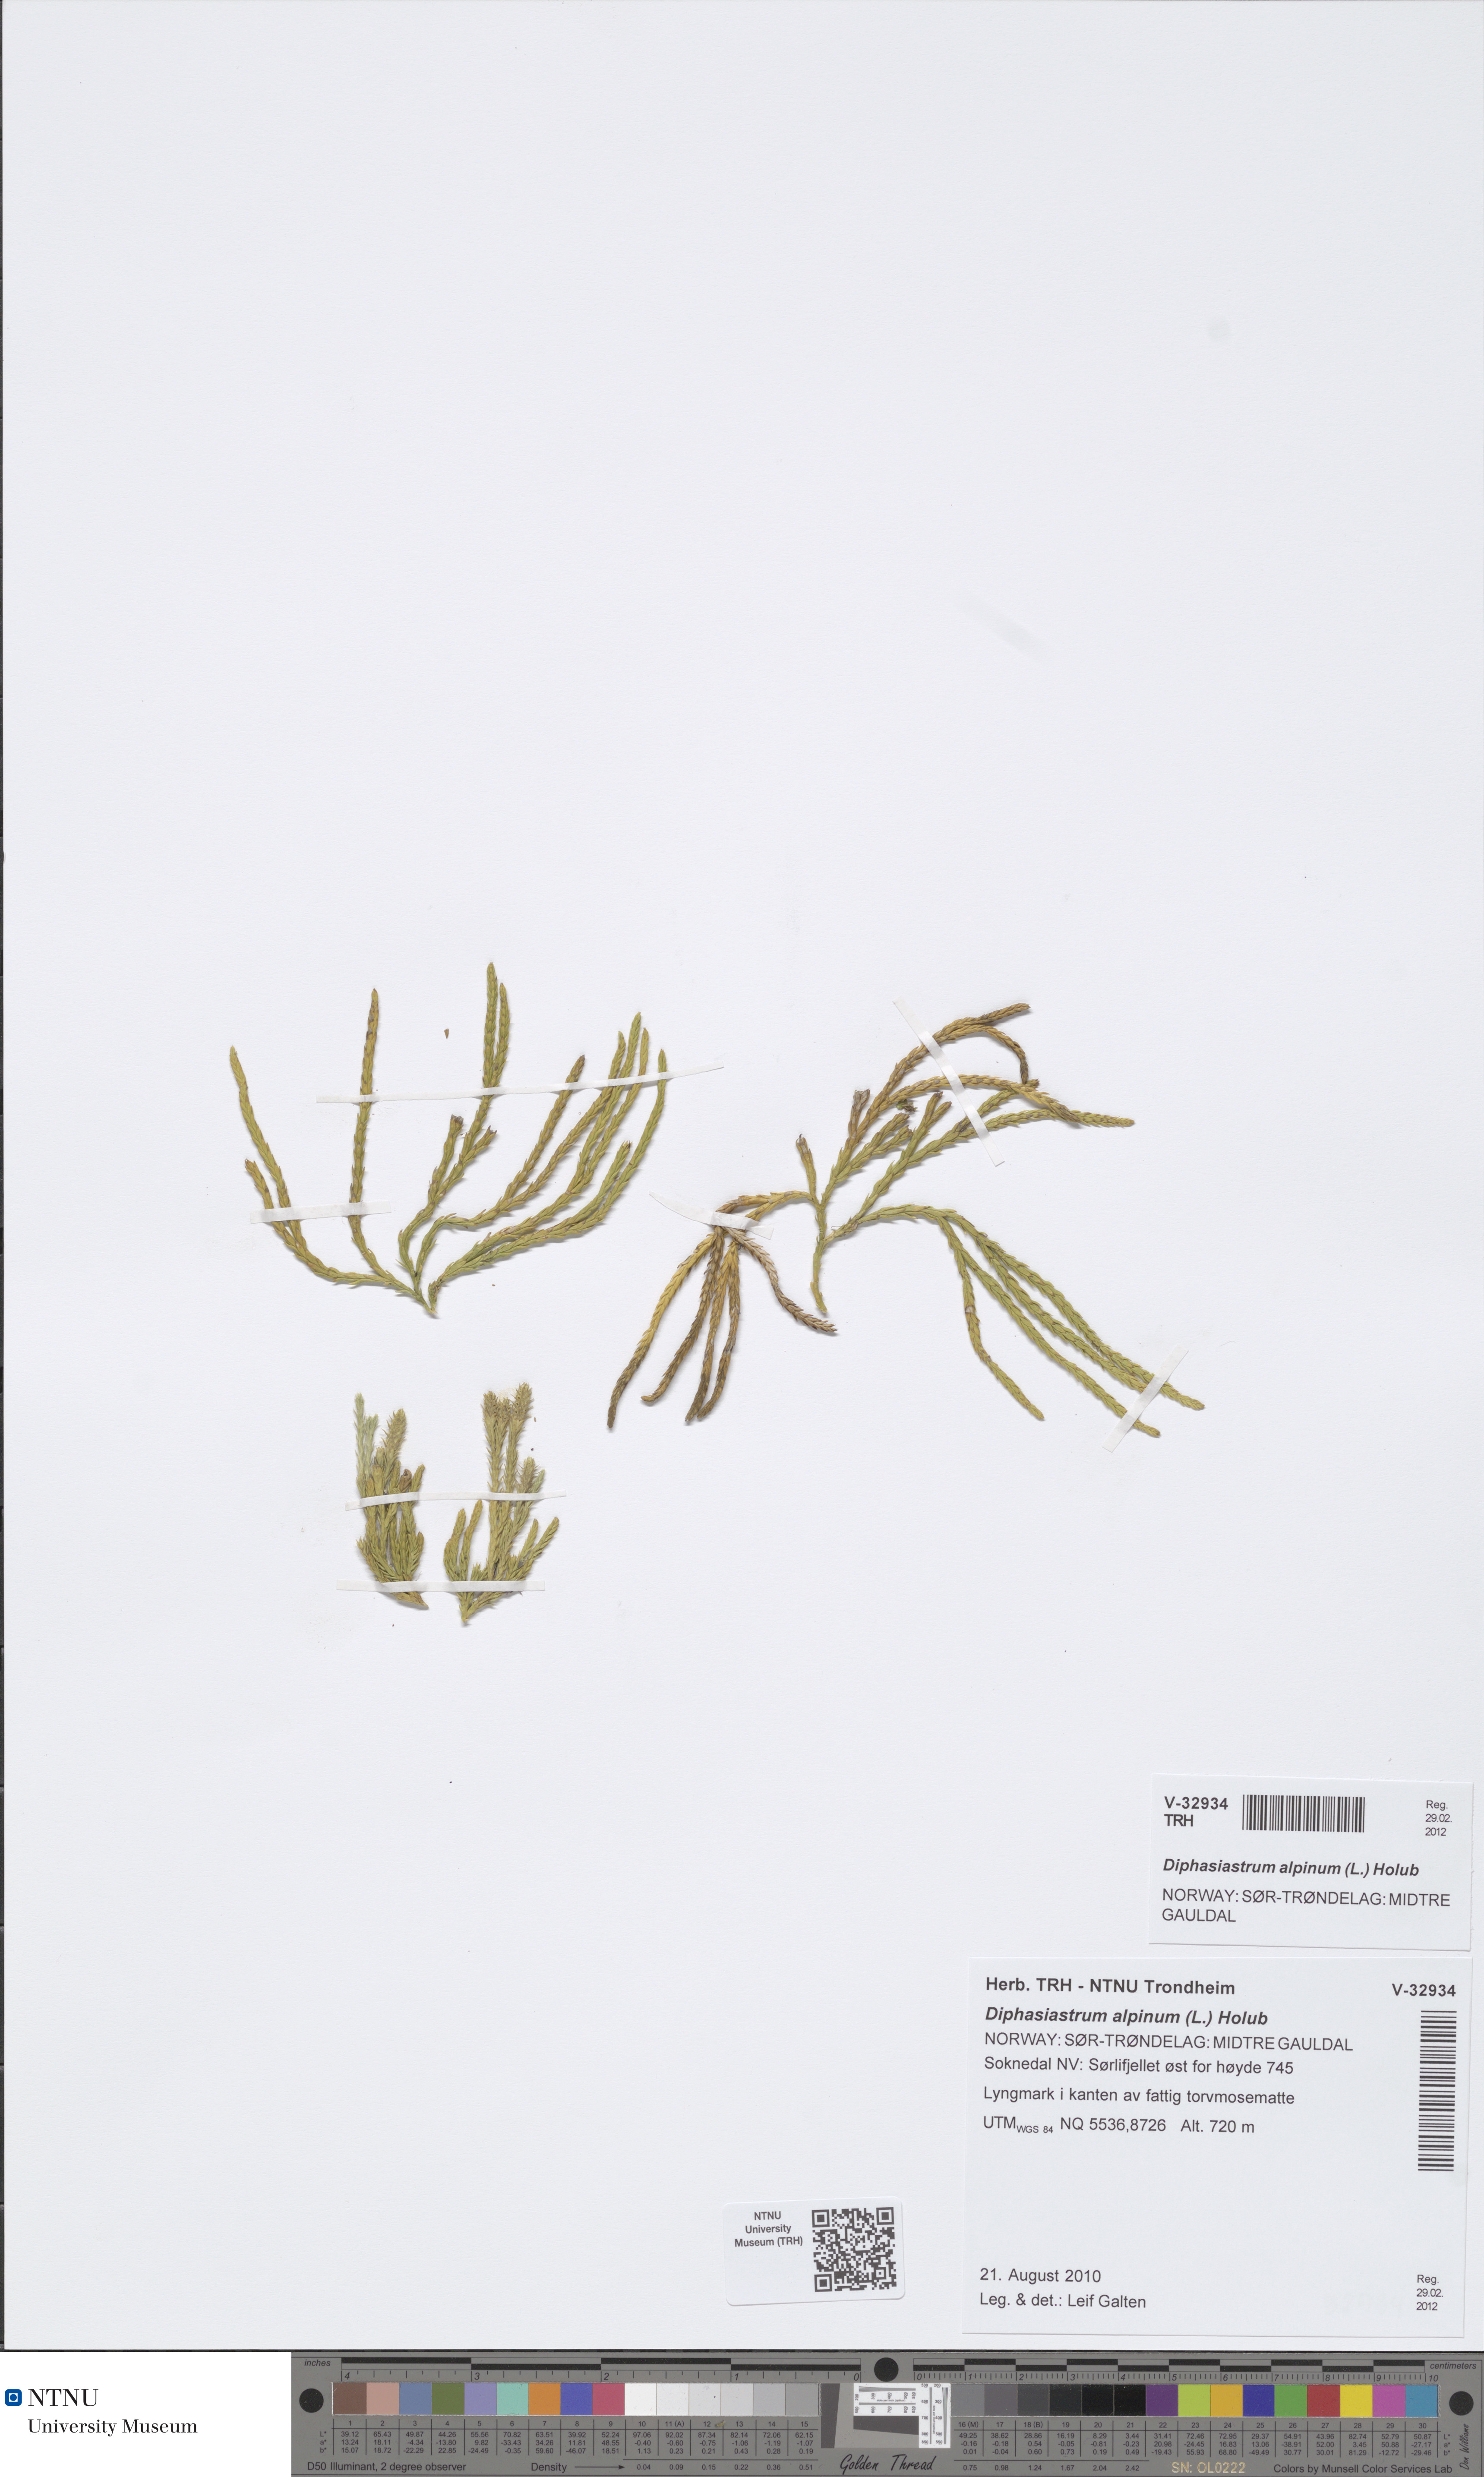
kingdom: Plantae
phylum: Tracheophyta
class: Lycopodiopsida
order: Lycopodiales
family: Lycopodiaceae
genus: Diphasiastrum
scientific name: Diphasiastrum alpinum
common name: Alpine clubmoss
